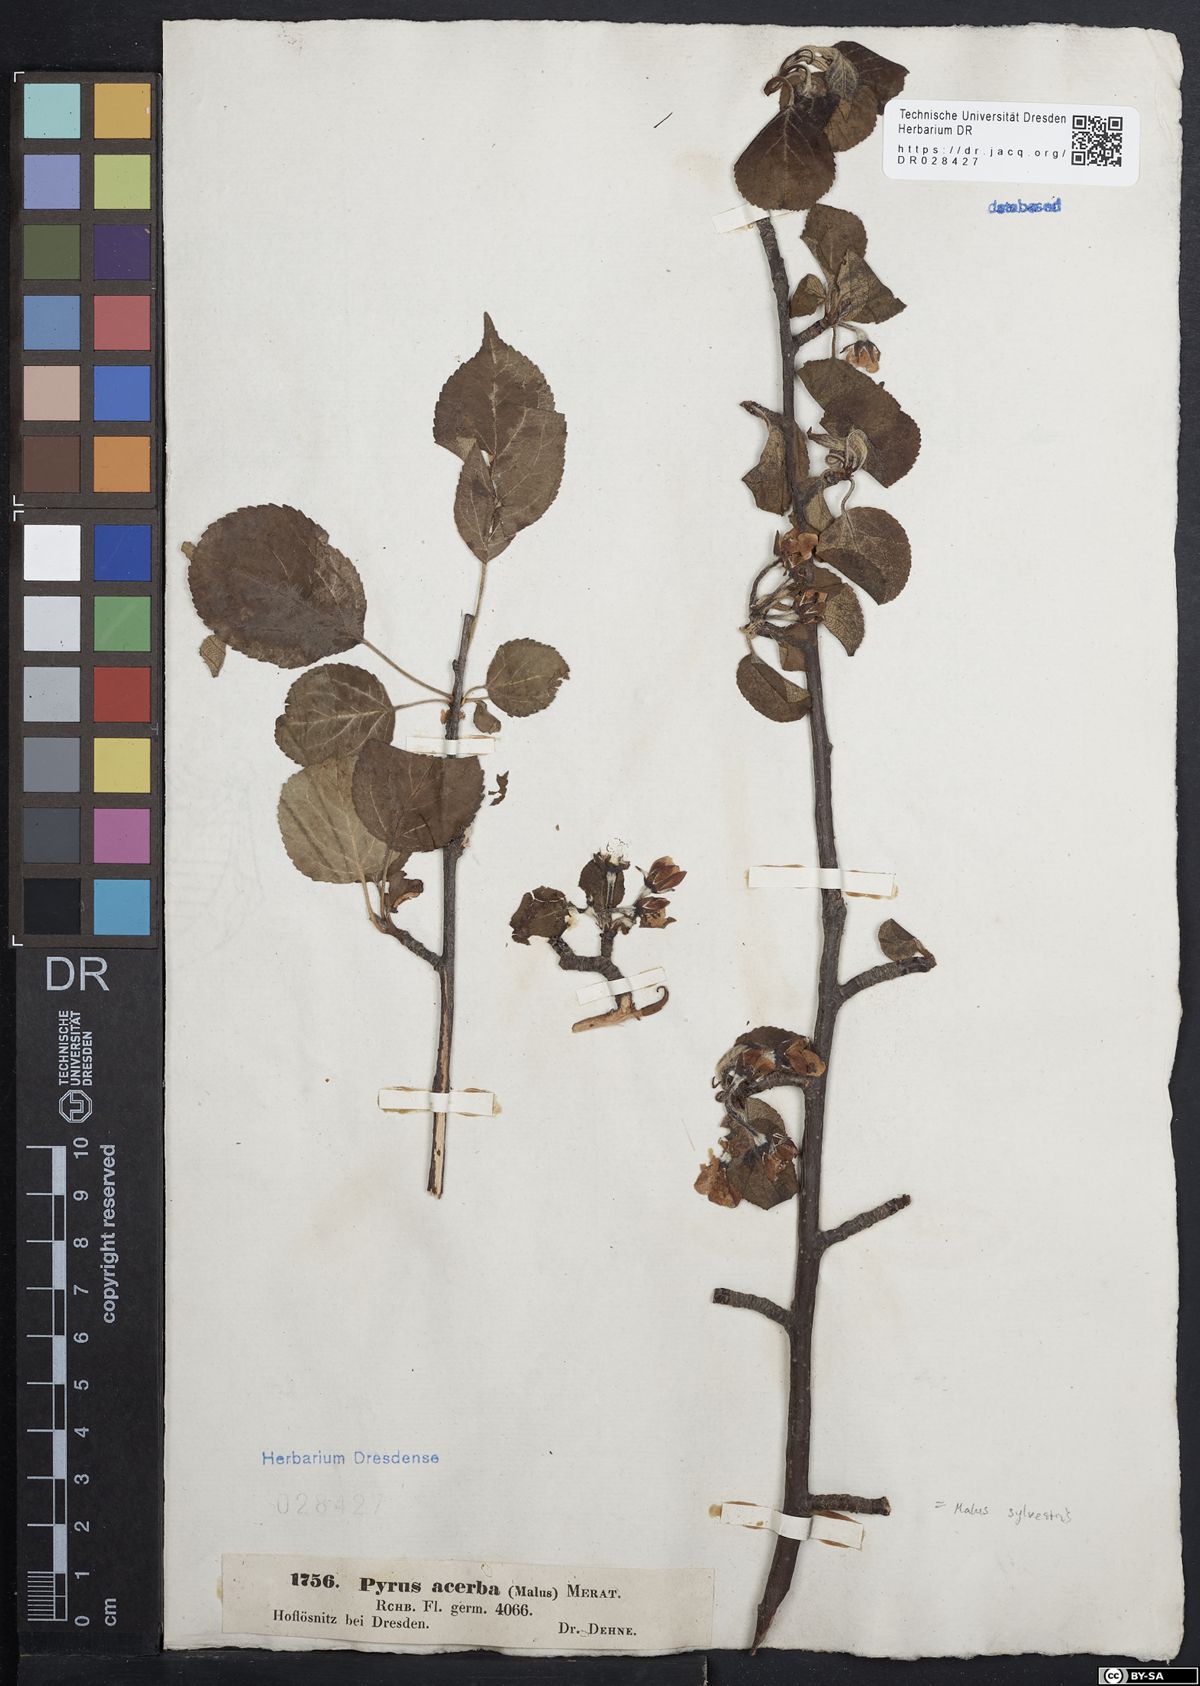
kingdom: Plantae
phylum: Tracheophyta
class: Magnoliopsida
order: Rosales
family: Rosaceae
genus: Malus
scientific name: Malus sylvestris
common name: Crab apple
